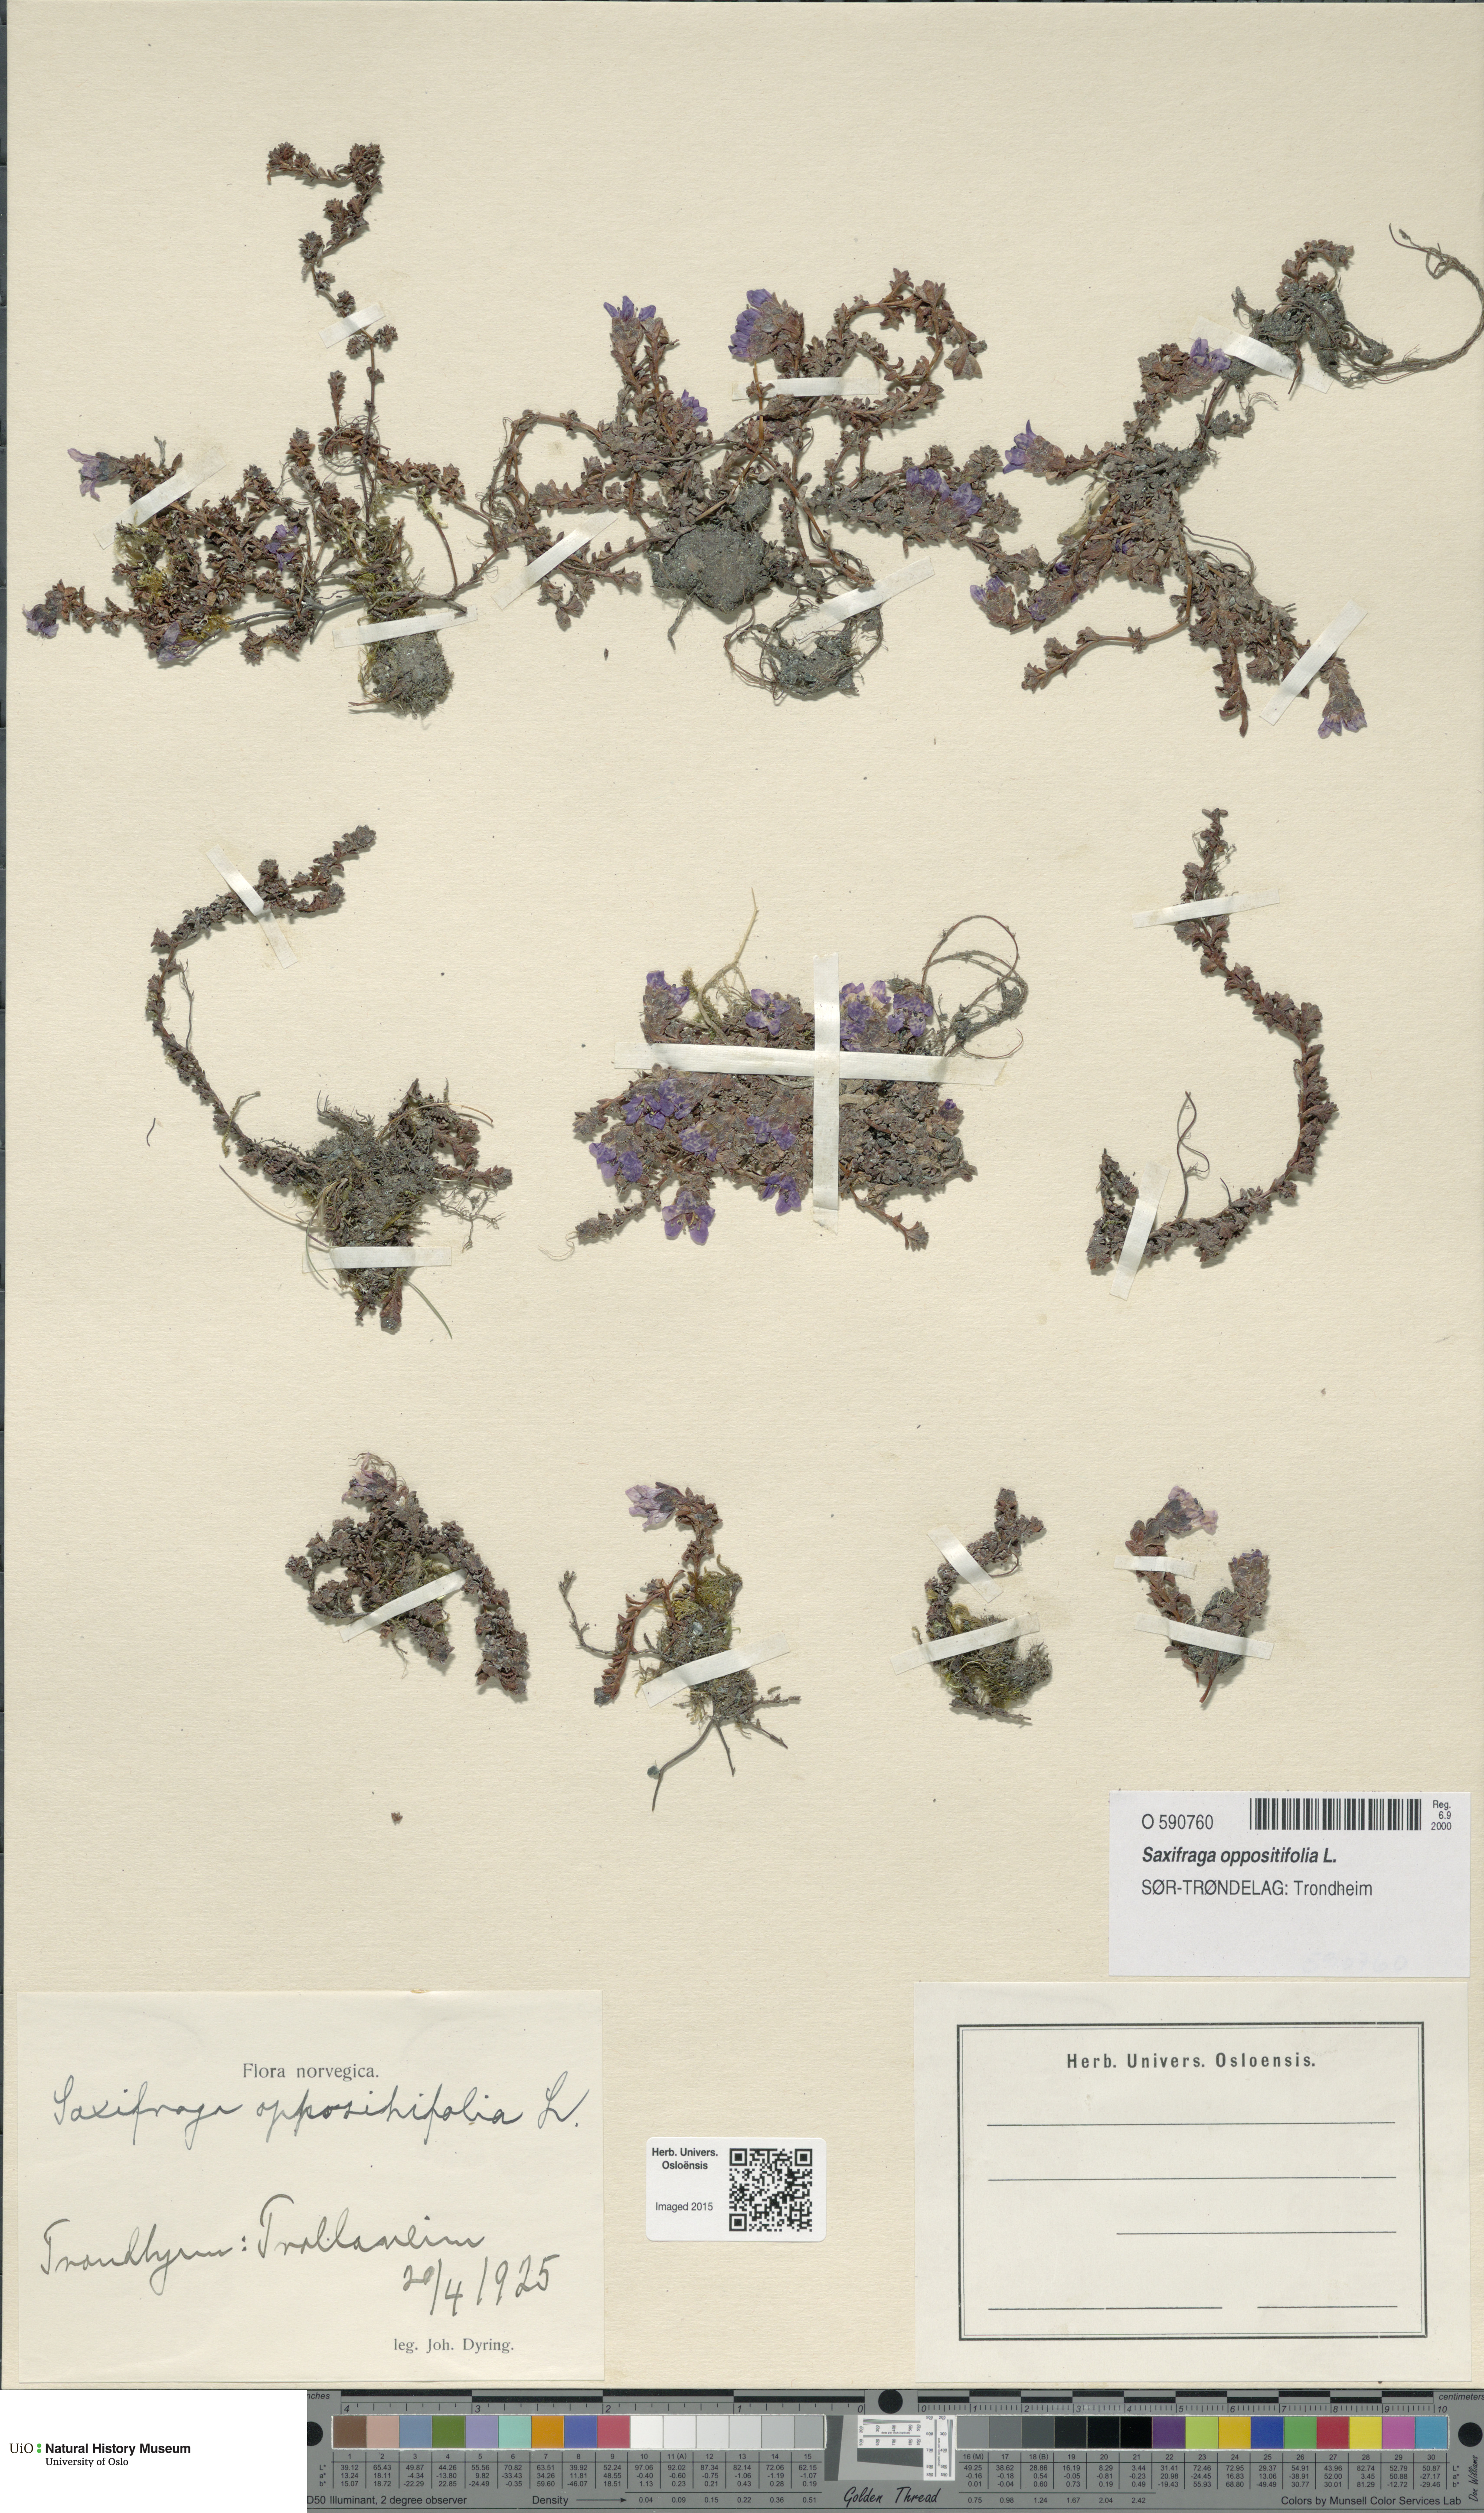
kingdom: Plantae
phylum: Tracheophyta
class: Magnoliopsida
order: Saxifragales
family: Saxifragaceae
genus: Saxifraga
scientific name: Saxifraga oppositifolia
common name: Purple saxifrage
